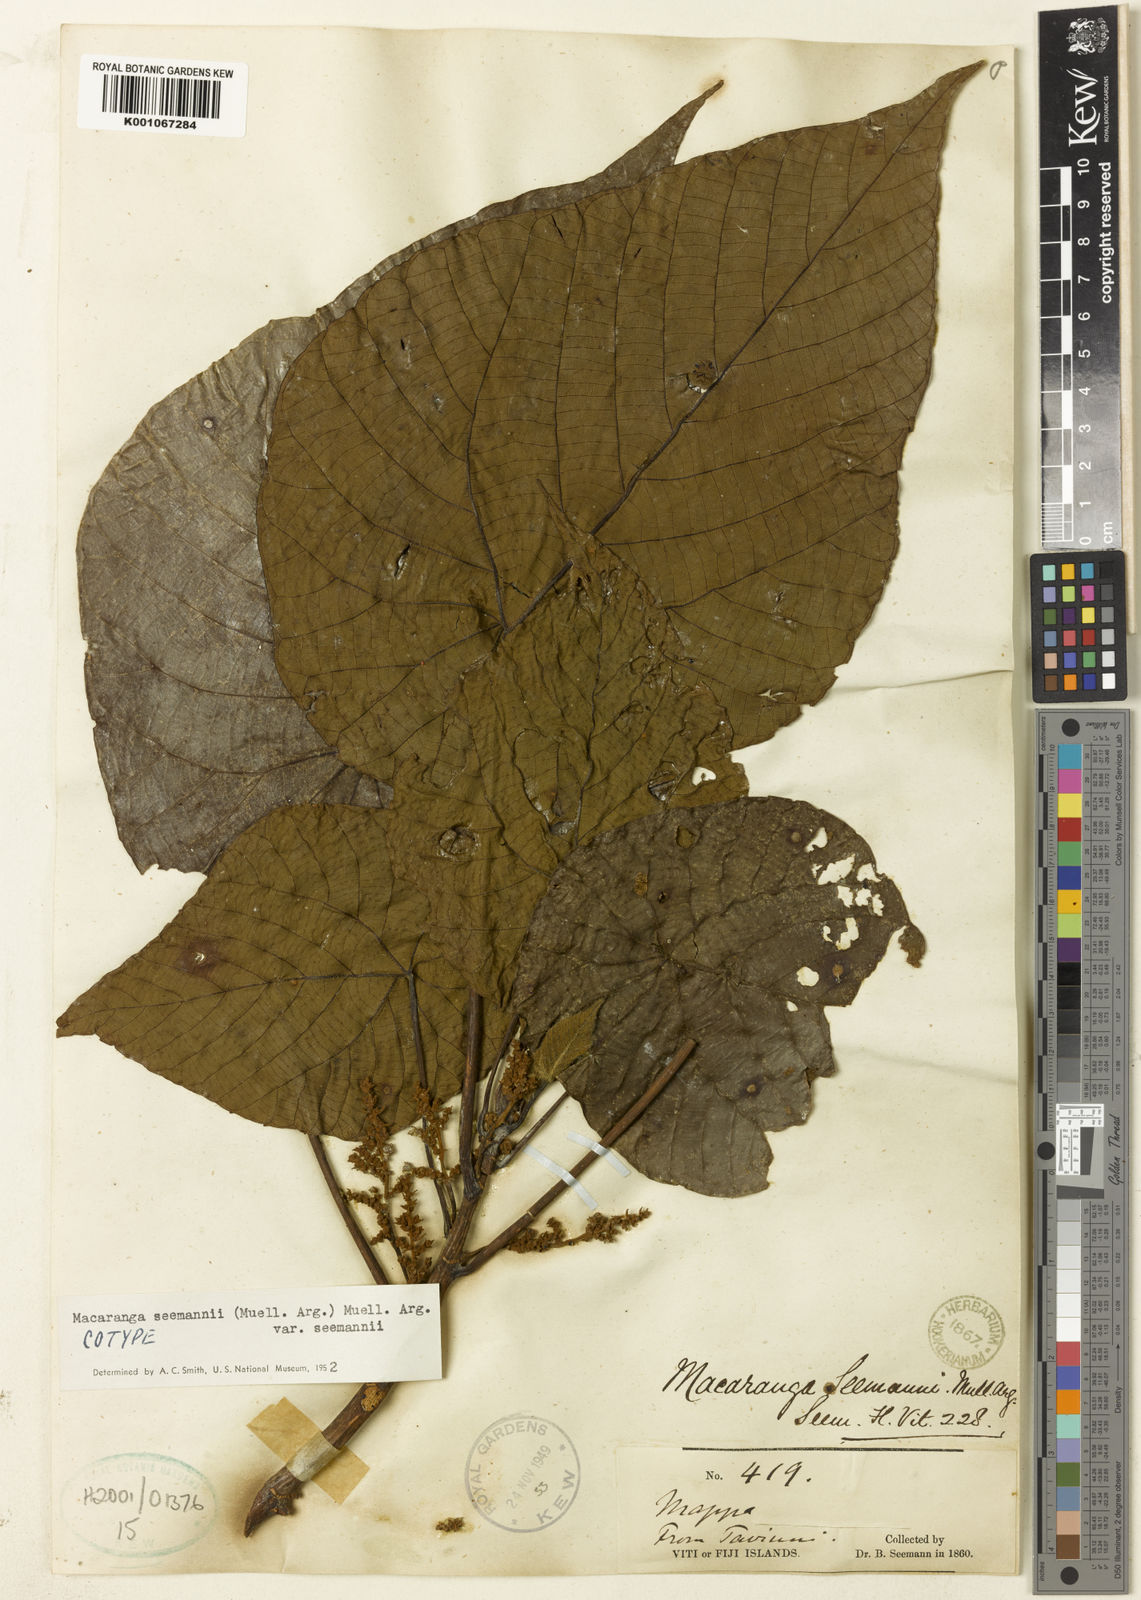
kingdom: Plantae
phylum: Tracheophyta
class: Magnoliopsida
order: Malpighiales
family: Euphorbiaceae
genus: Macaranga
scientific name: Macaranga
